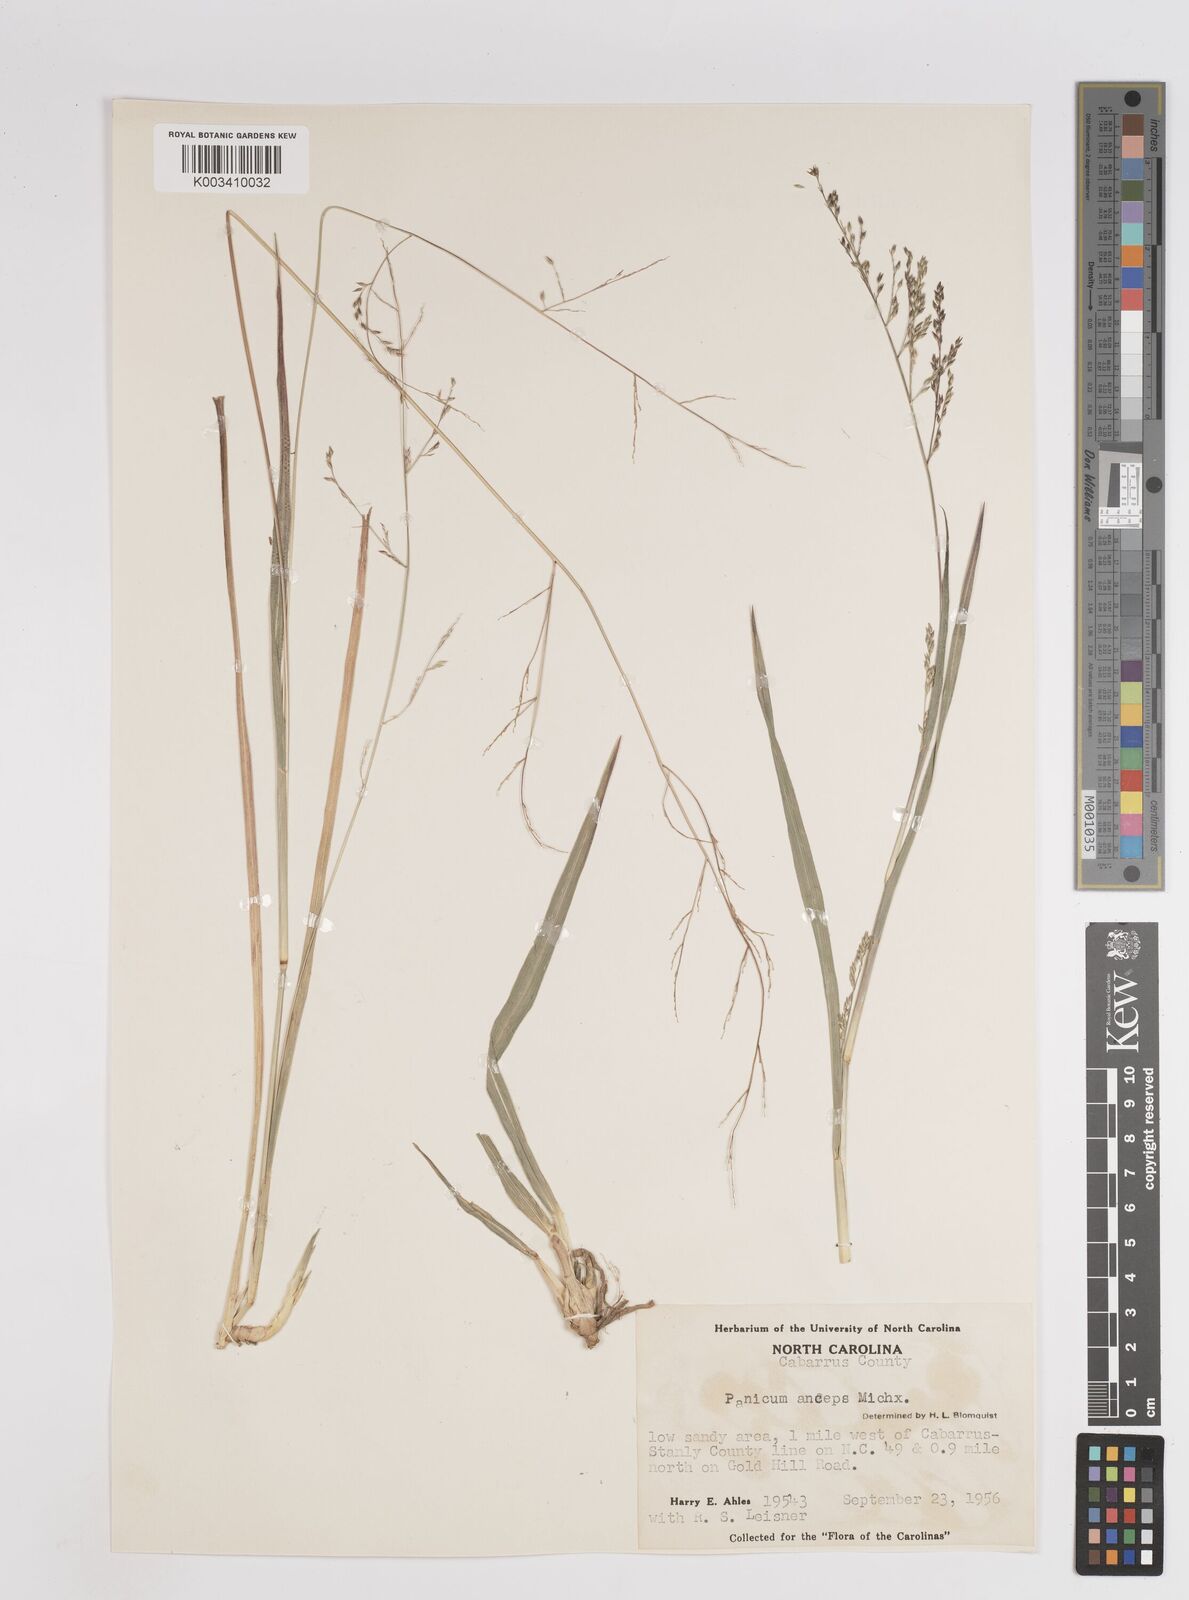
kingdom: Plantae
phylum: Tracheophyta
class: Liliopsida
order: Poales
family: Poaceae
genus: Coleataenia
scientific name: Coleataenia anceps
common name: Beaked panic grass
